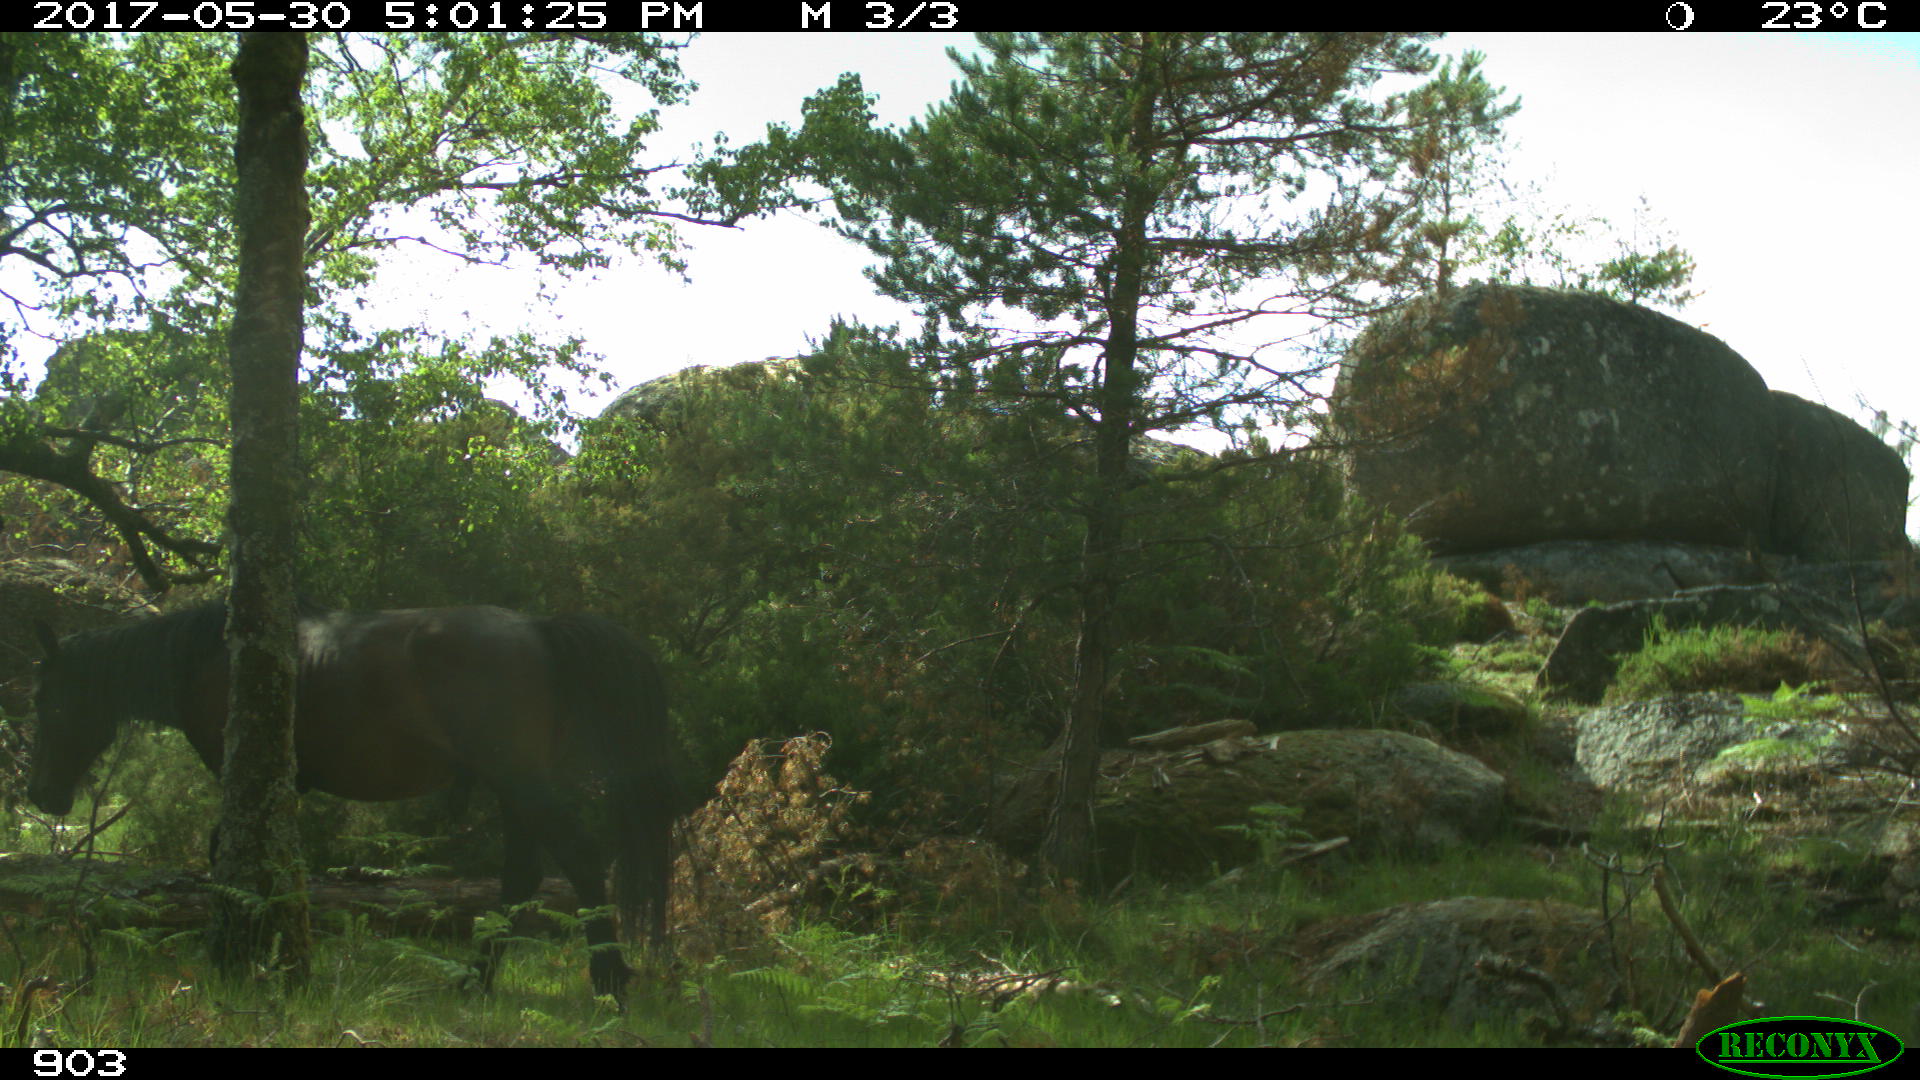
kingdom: Animalia
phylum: Chordata
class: Mammalia
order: Perissodactyla
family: Equidae
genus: Equus
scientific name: Equus caballus
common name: Horse
